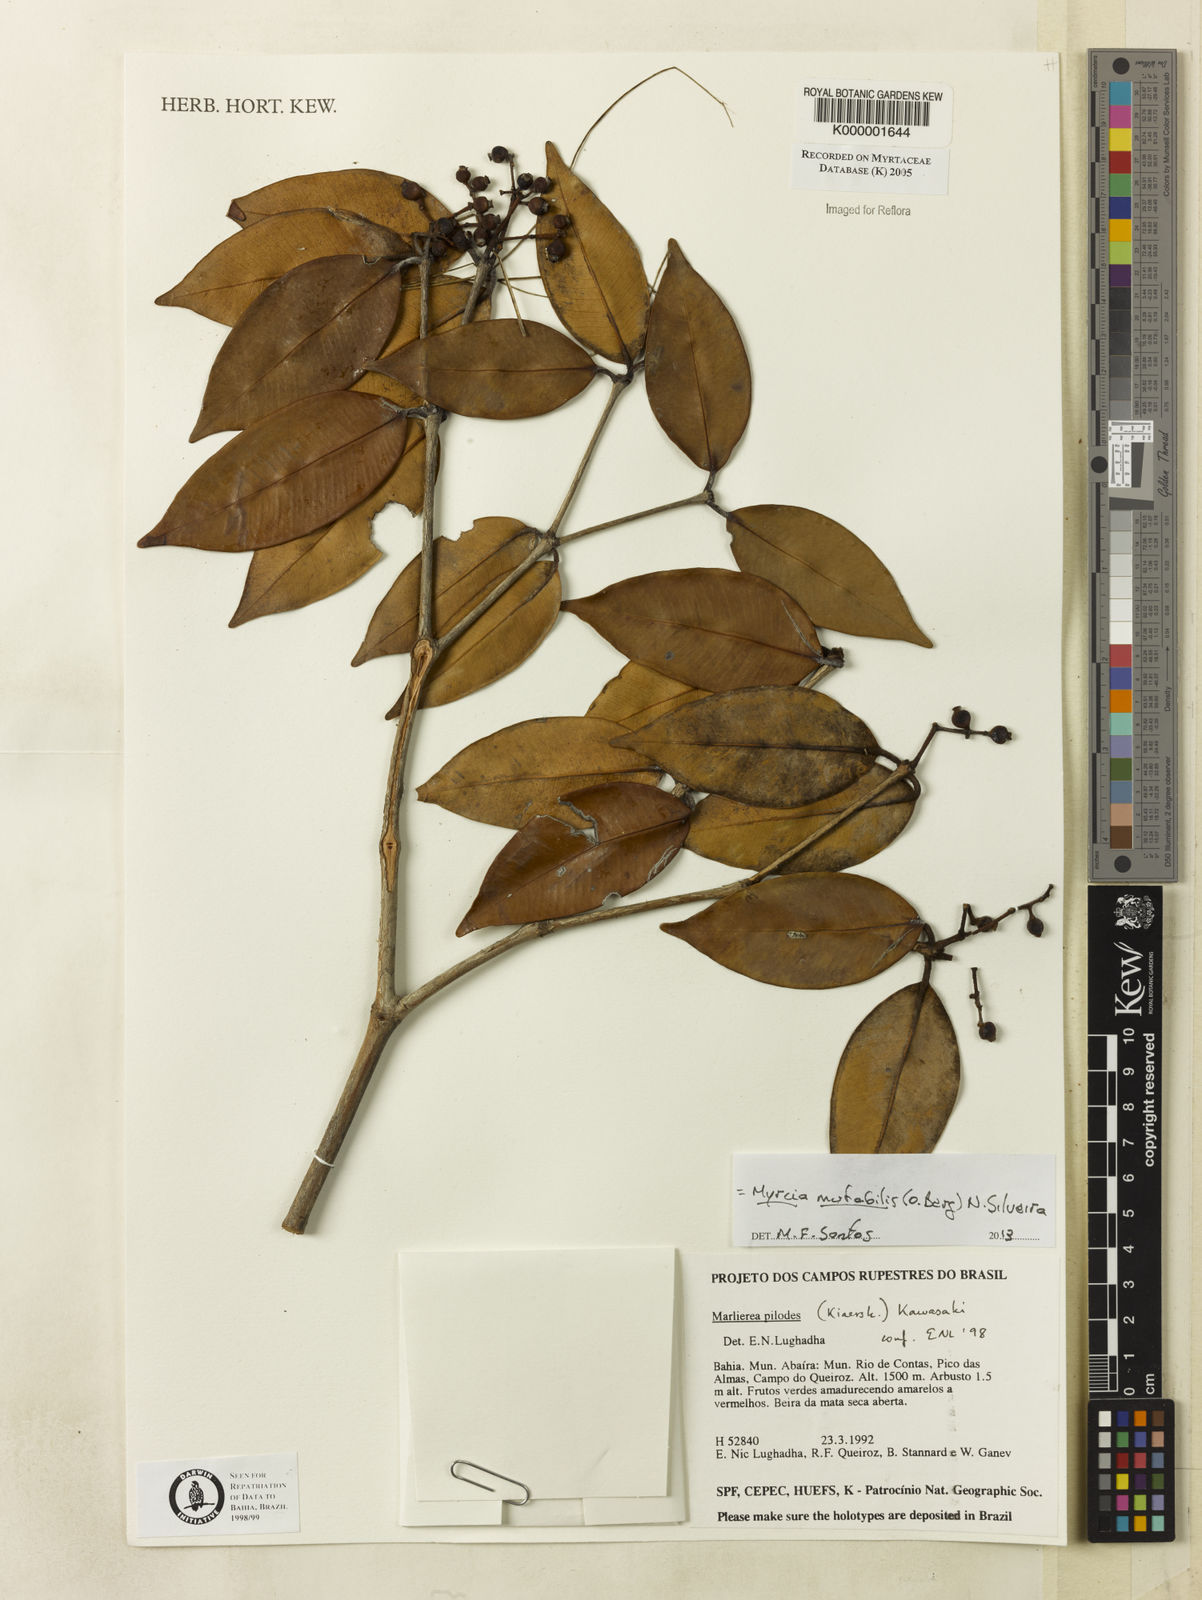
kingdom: Plantae
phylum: Tracheophyta
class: Magnoliopsida
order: Myrtales
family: Myrtaceae
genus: Myrcia
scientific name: Myrcia mutabilis
